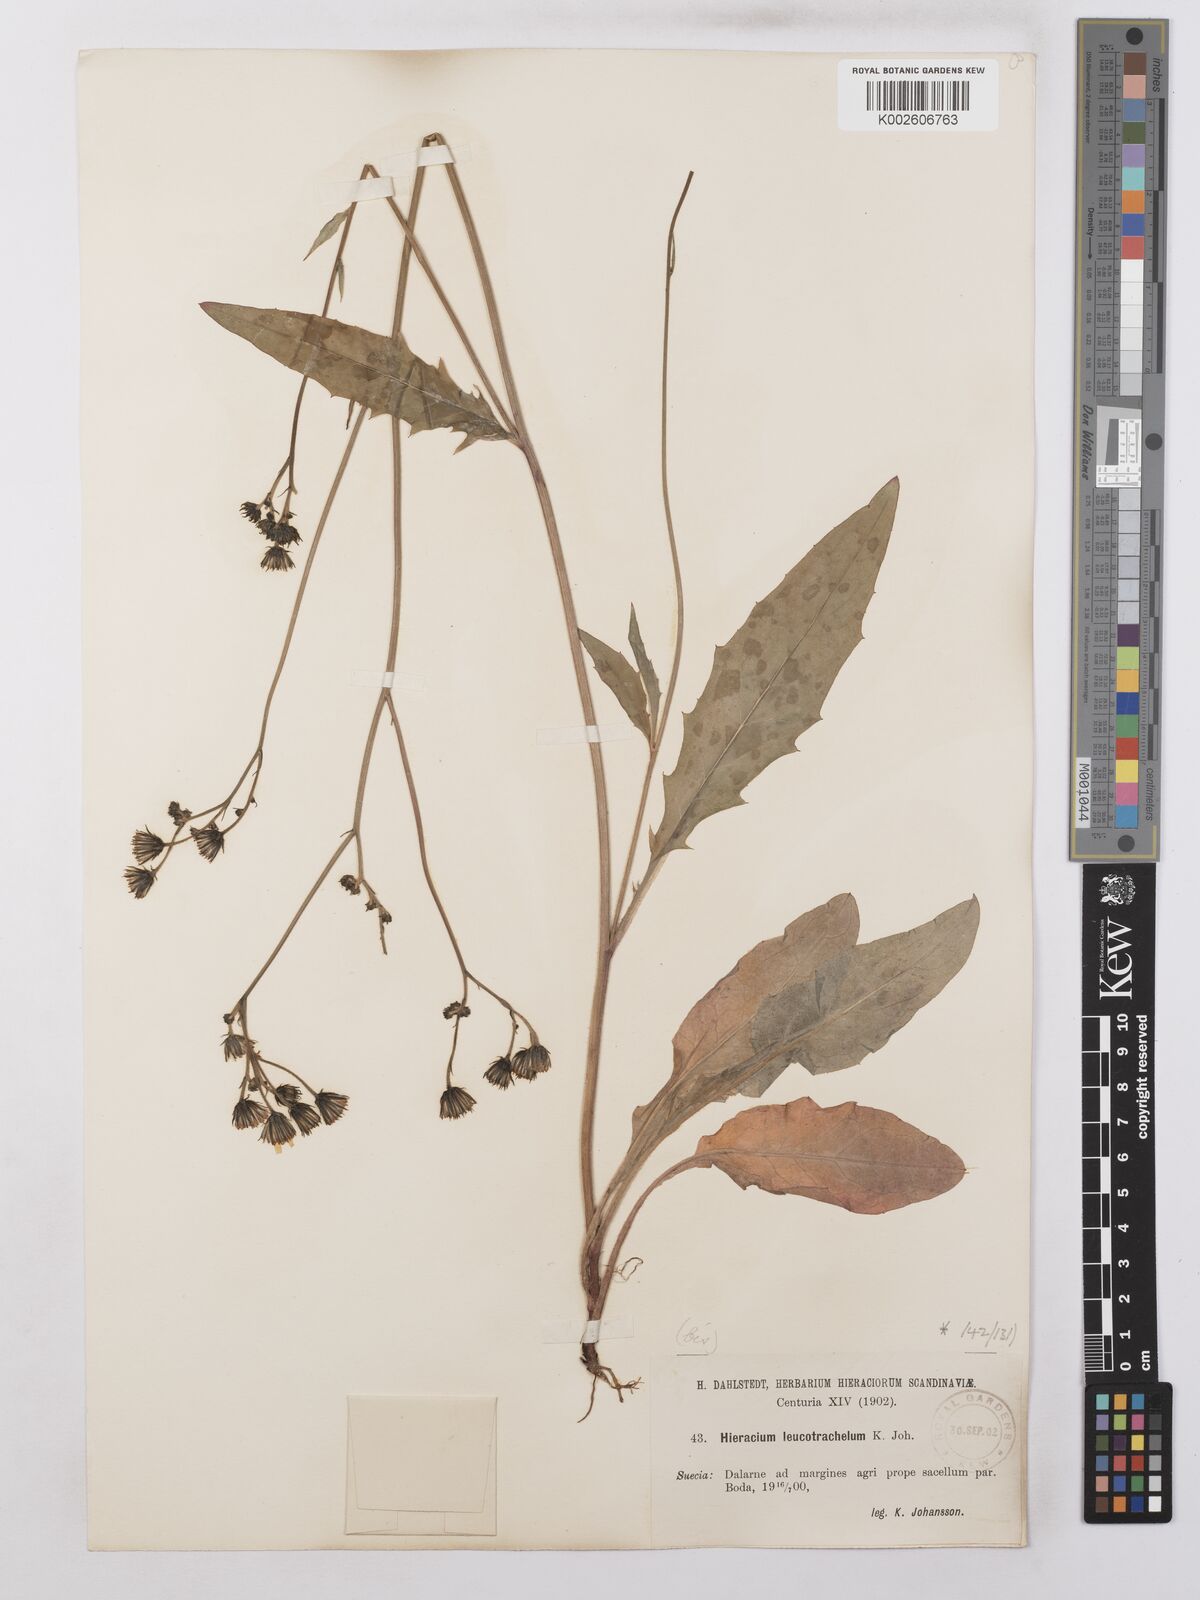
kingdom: Plantae
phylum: Tracheophyta
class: Magnoliopsida
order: Asterales
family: Asteraceae
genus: Hieracium
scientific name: Hieracium lachenalii
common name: Common hawkweed
